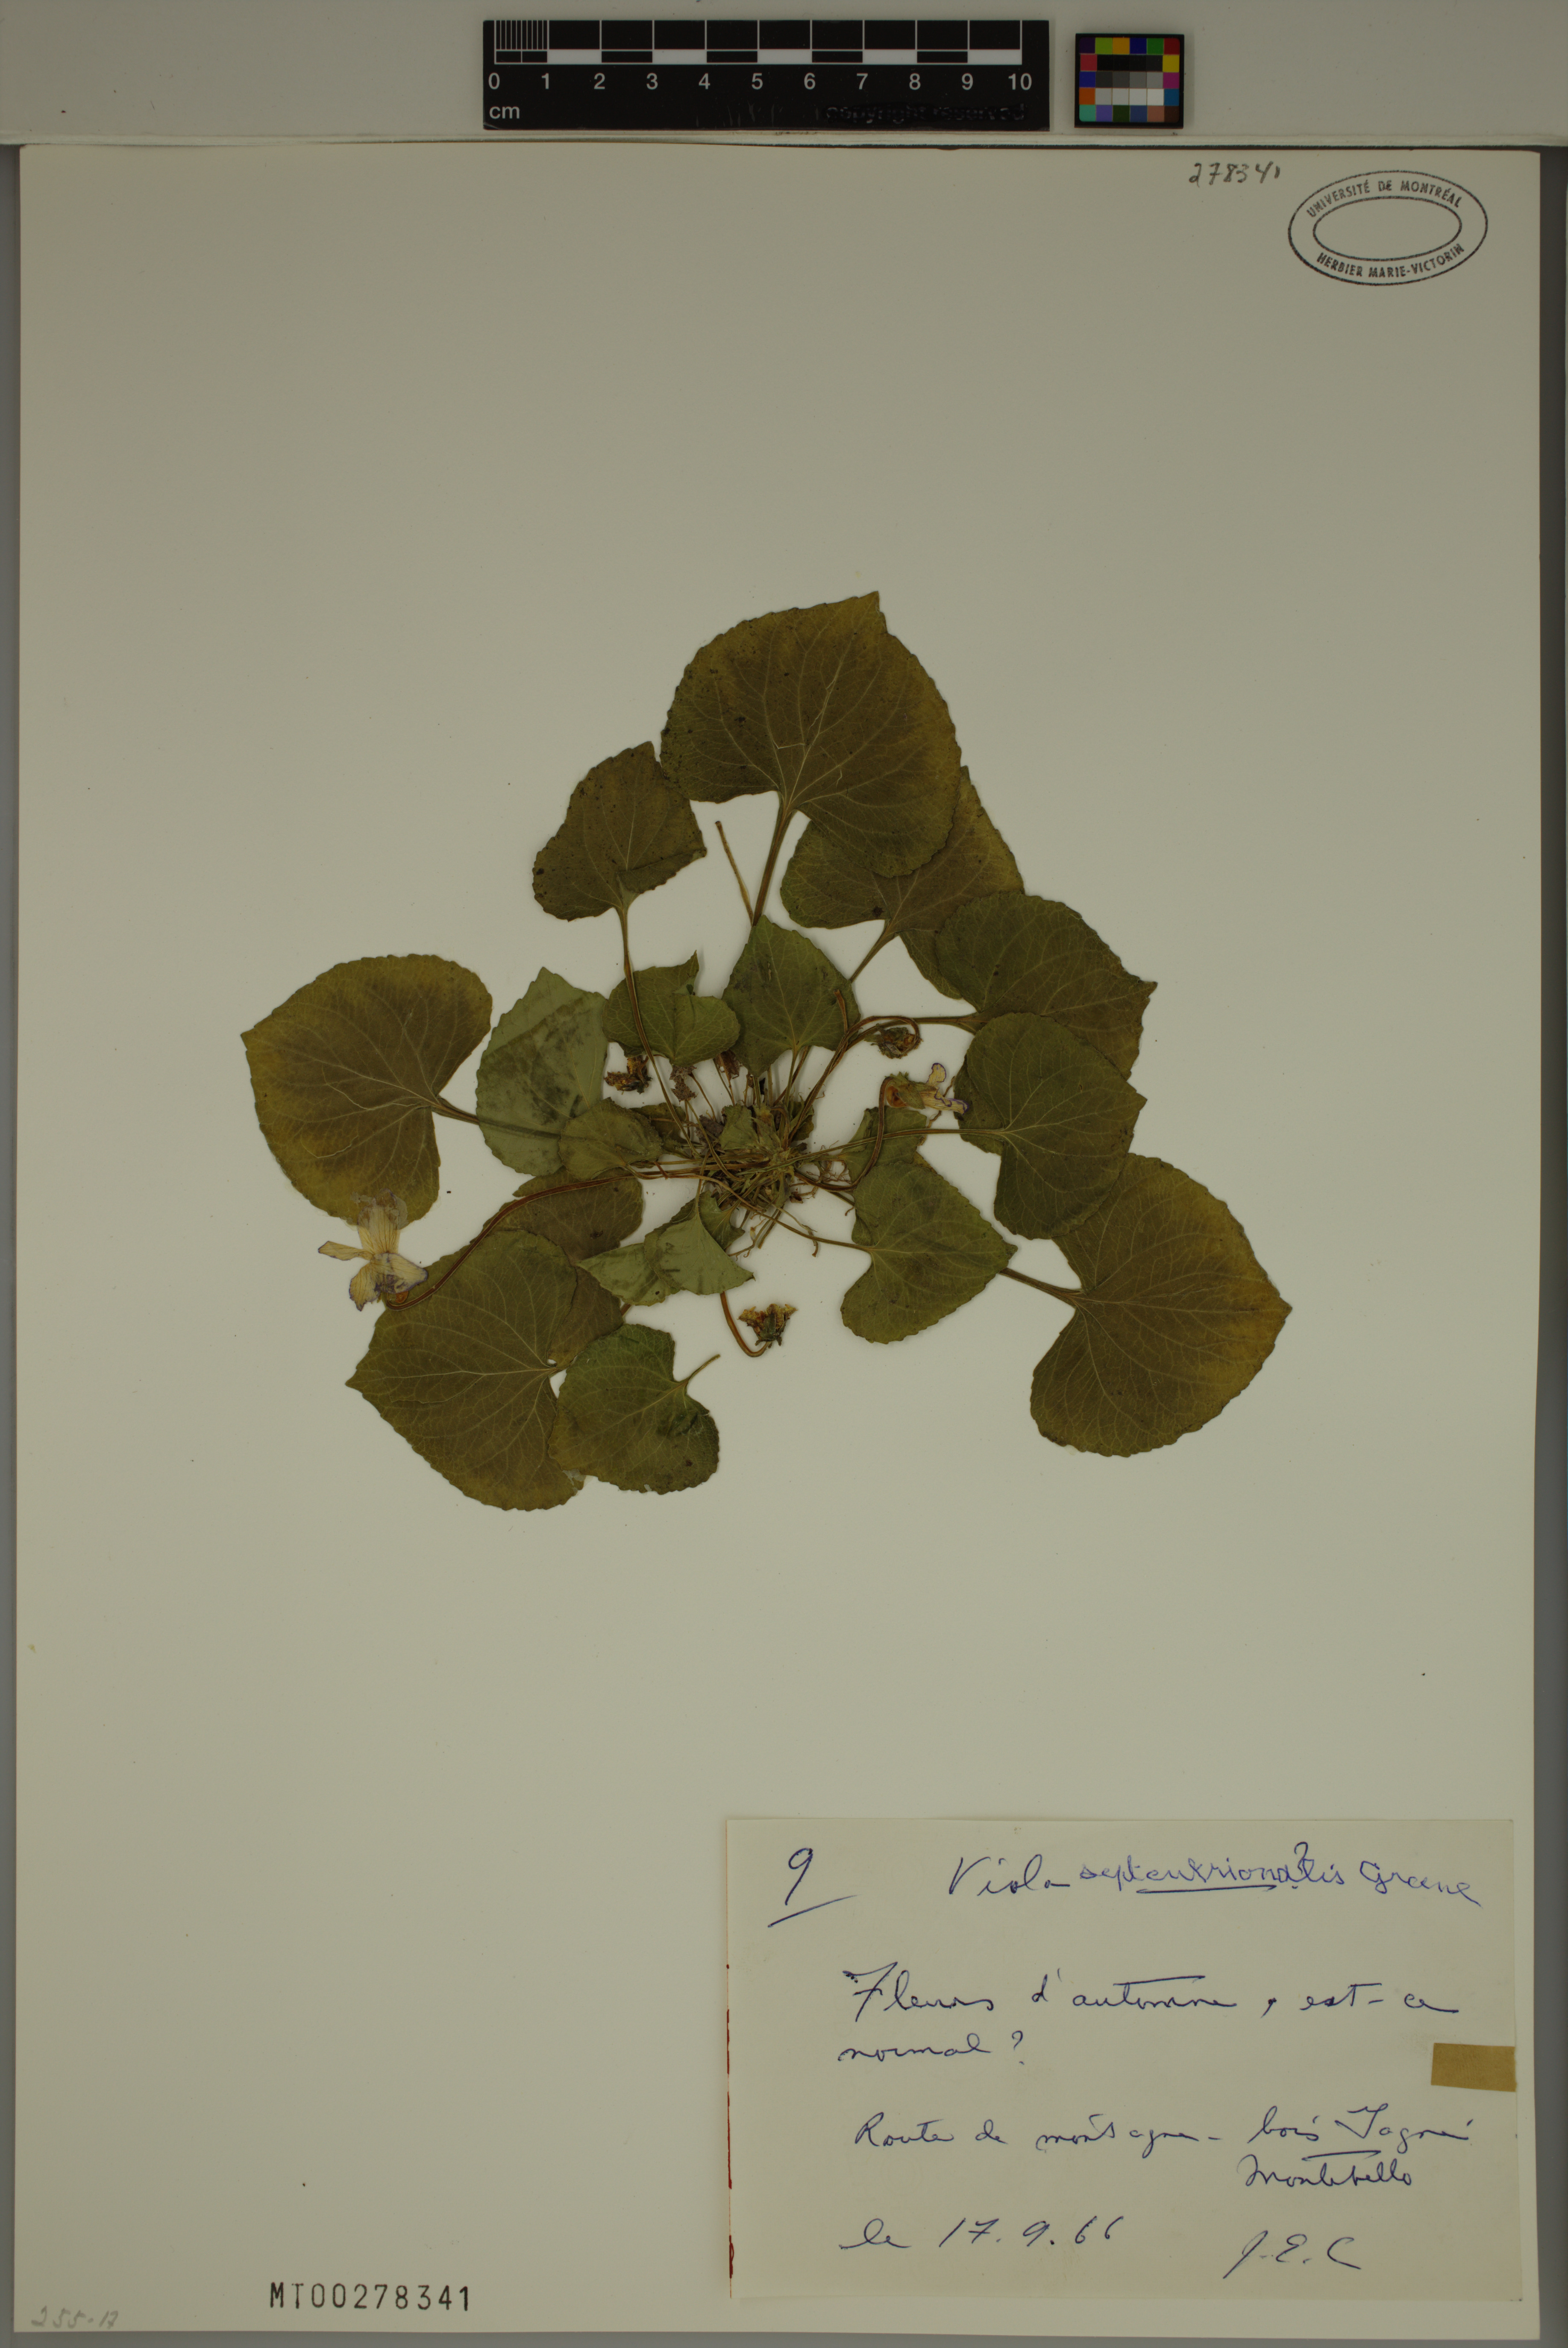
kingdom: Plantae
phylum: Tracheophyta
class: Magnoliopsida
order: Malpighiales
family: Violaceae
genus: Viola
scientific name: Viola septentrionalis
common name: Northern woodland violet
